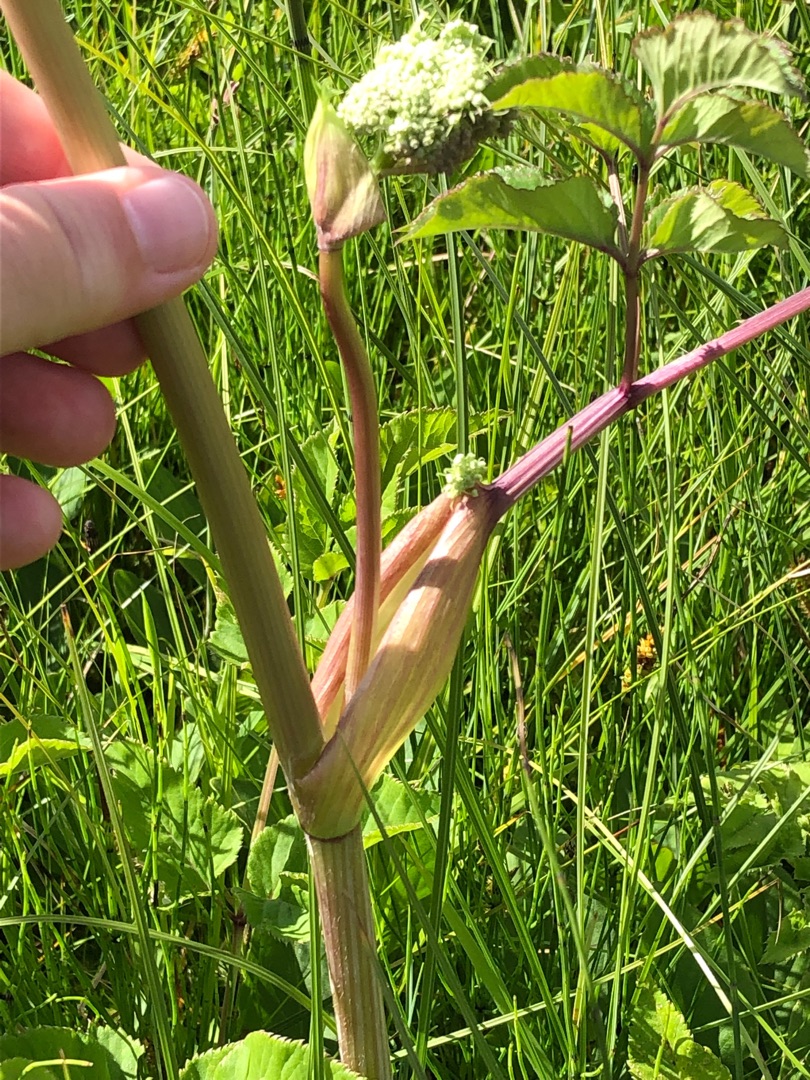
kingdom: Plantae
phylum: Tracheophyta
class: Magnoliopsida
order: Apiales
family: Apiaceae
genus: Angelica
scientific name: Angelica sylvestris
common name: Angelik
